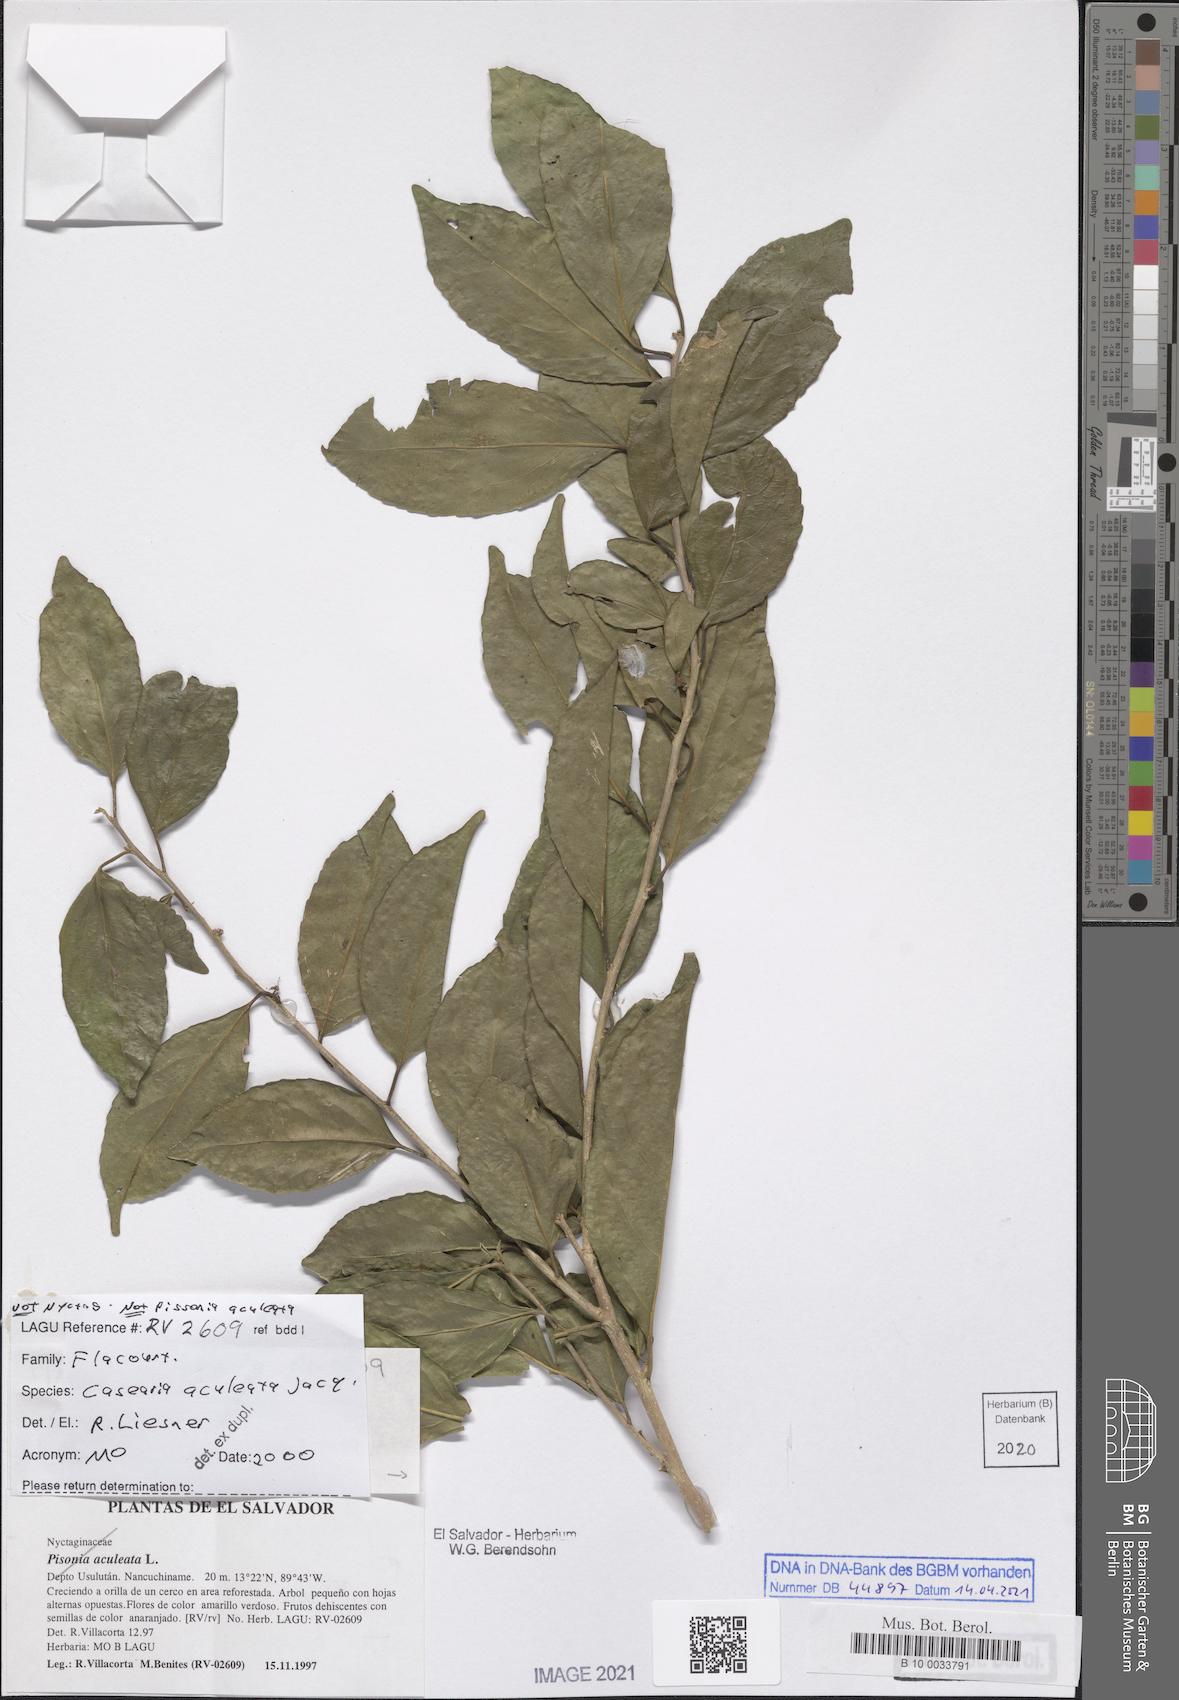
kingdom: Plantae
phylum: Tracheophyta
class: Magnoliopsida
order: Malpighiales
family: Salicaceae
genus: Casearia
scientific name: Casearia aculeata
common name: Cockspur
